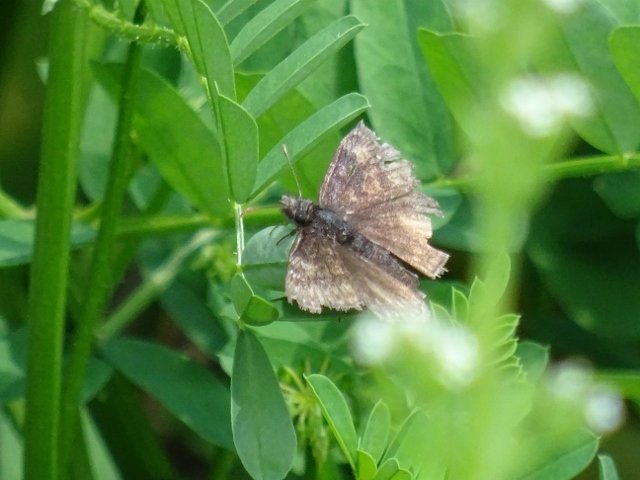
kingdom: Animalia
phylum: Arthropoda
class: Insecta
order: Lepidoptera
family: Hesperiidae
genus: Erynnis
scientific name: Erynnis
